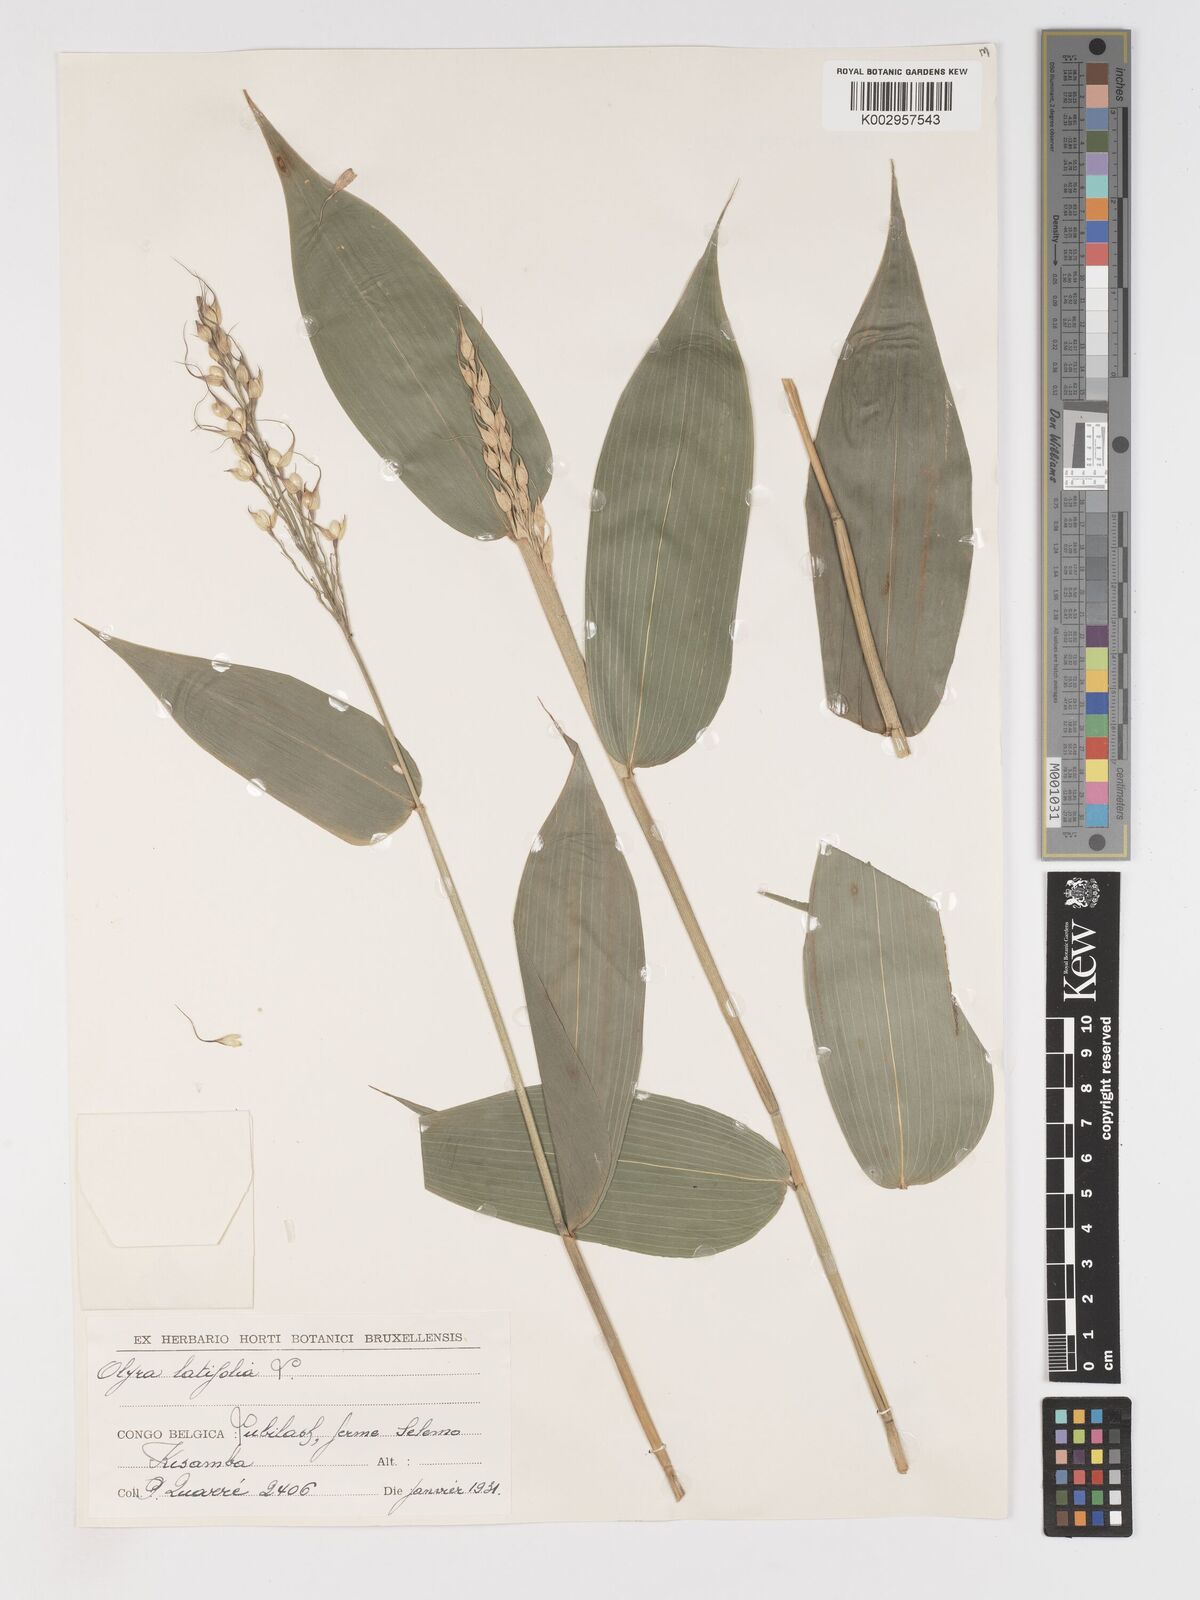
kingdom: Plantae
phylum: Tracheophyta
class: Liliopsida
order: Poales
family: Poaceae
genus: Olyra
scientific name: Olyra latifolia
